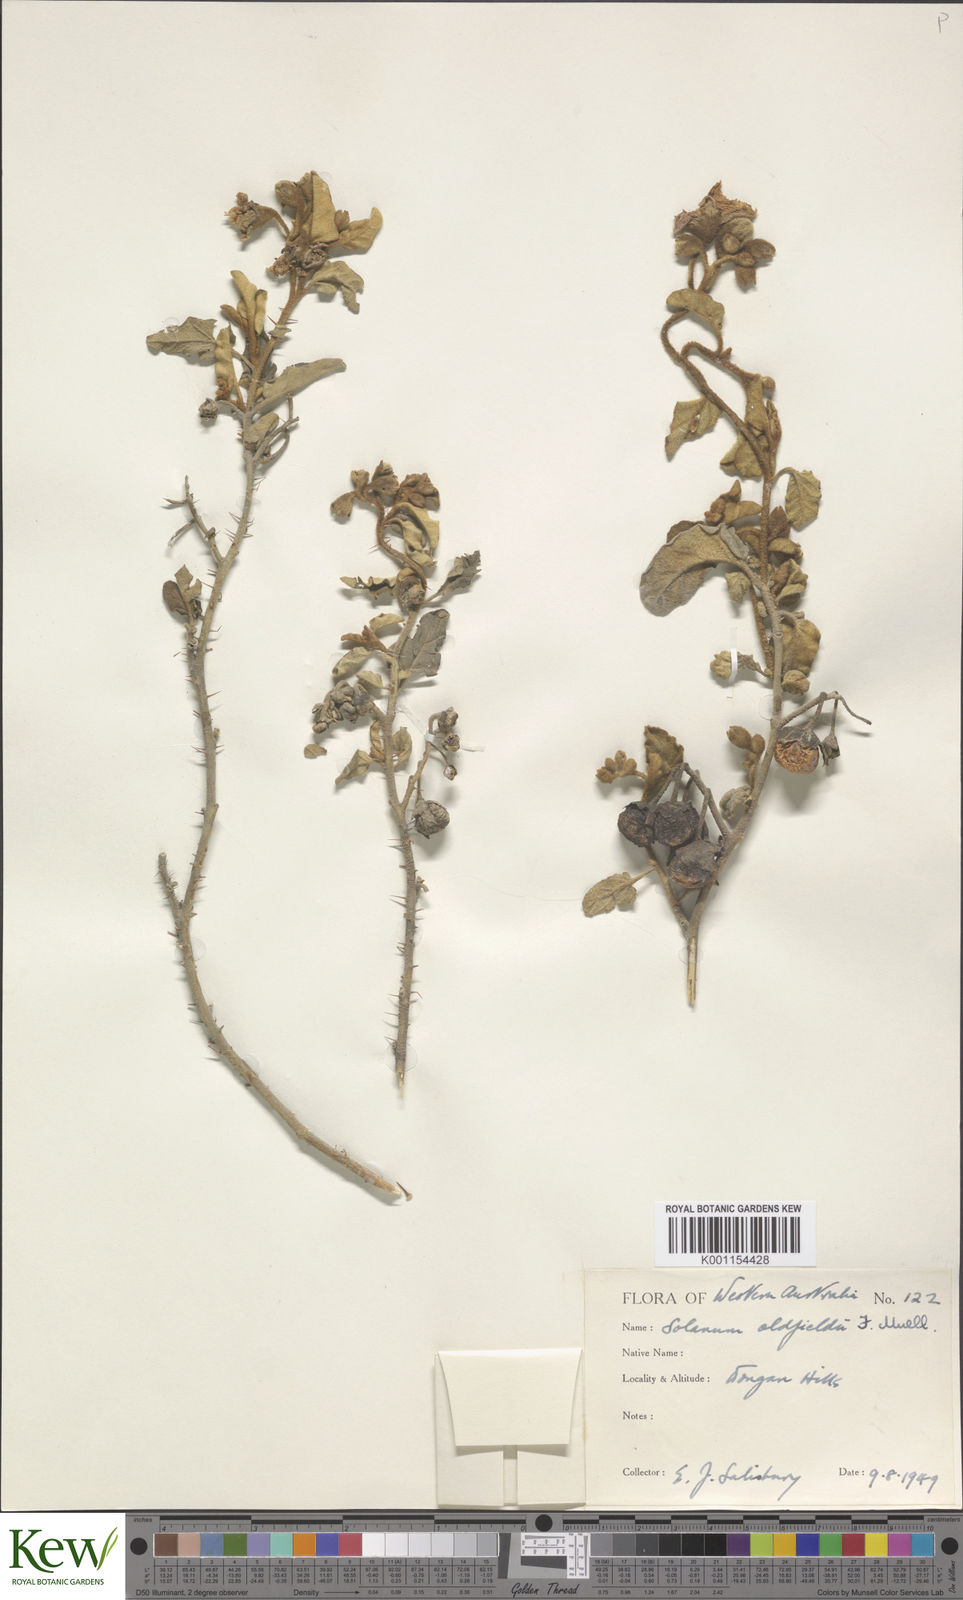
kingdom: Plantae
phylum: Tracheophyta
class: Magnoliopsida
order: Solanales
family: Solanaceae
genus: Solanum
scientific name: Solanum oldfieldii
